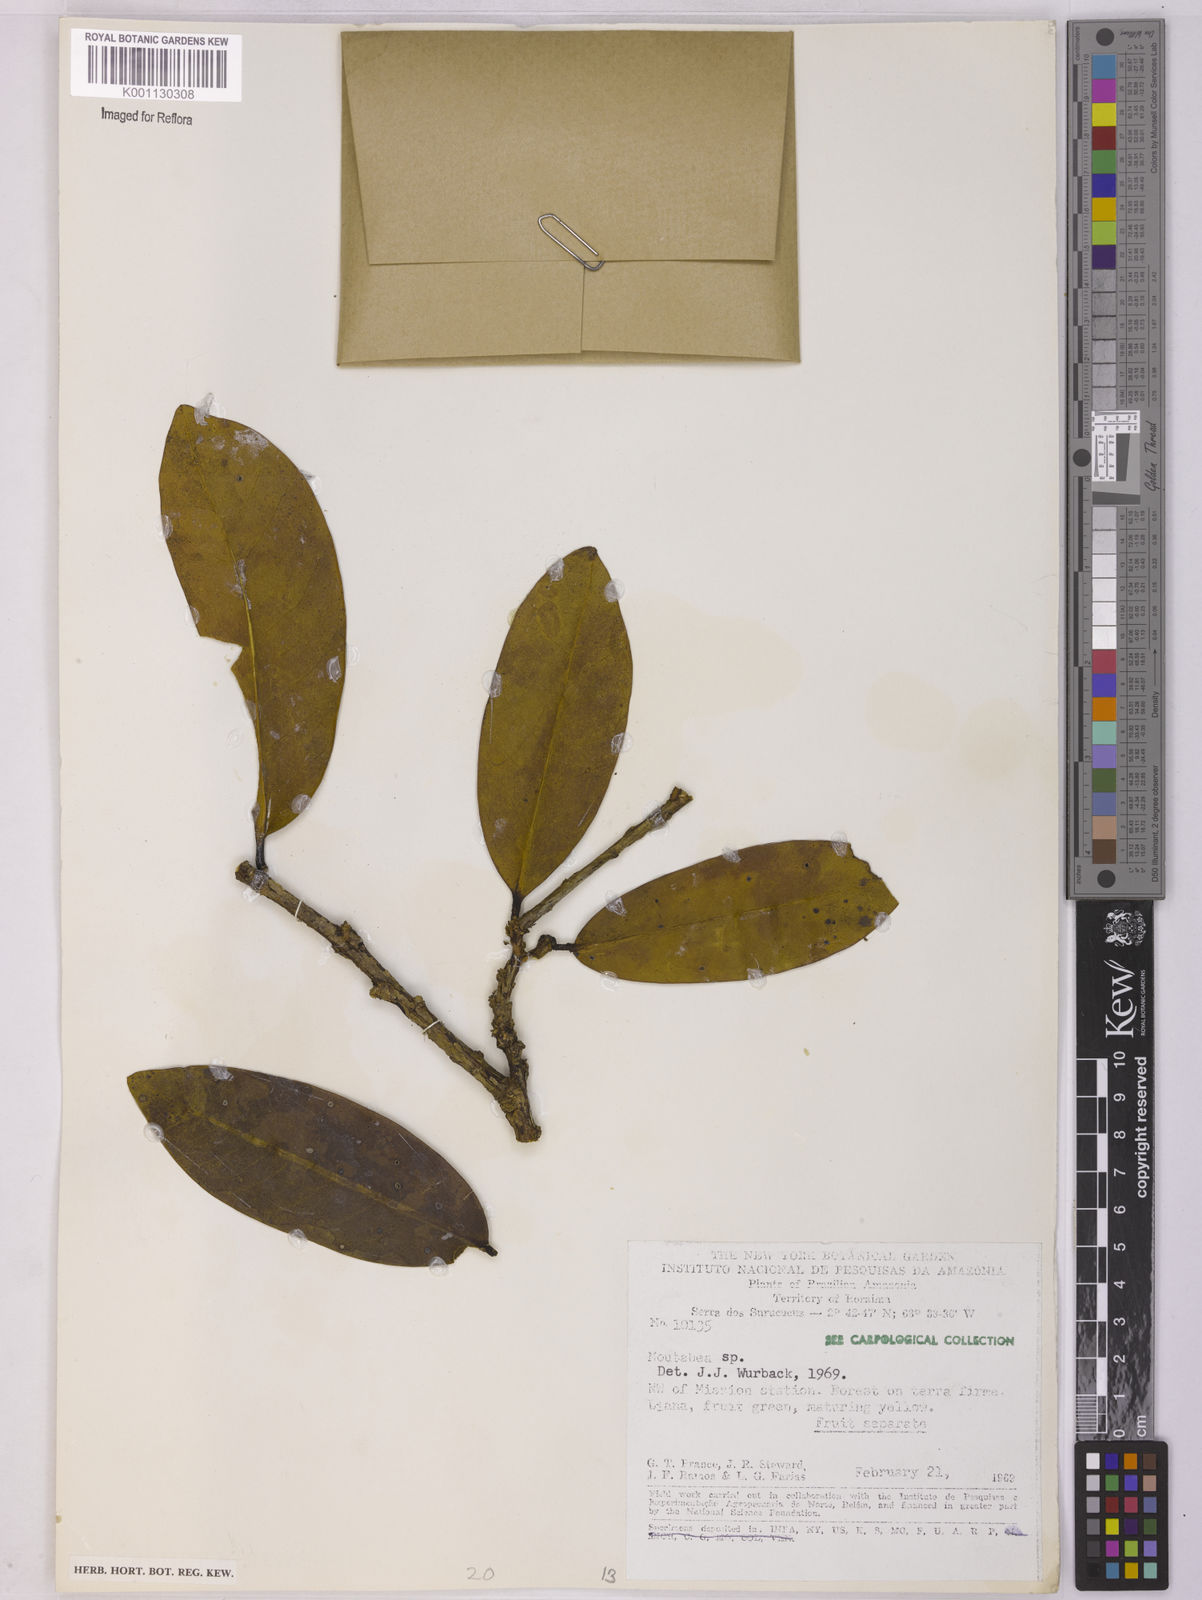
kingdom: Plantae
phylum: Tracheophyta
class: Magnoliopsida
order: Fabales
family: Polygalaceae
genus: Moutabea
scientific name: Moutabea
